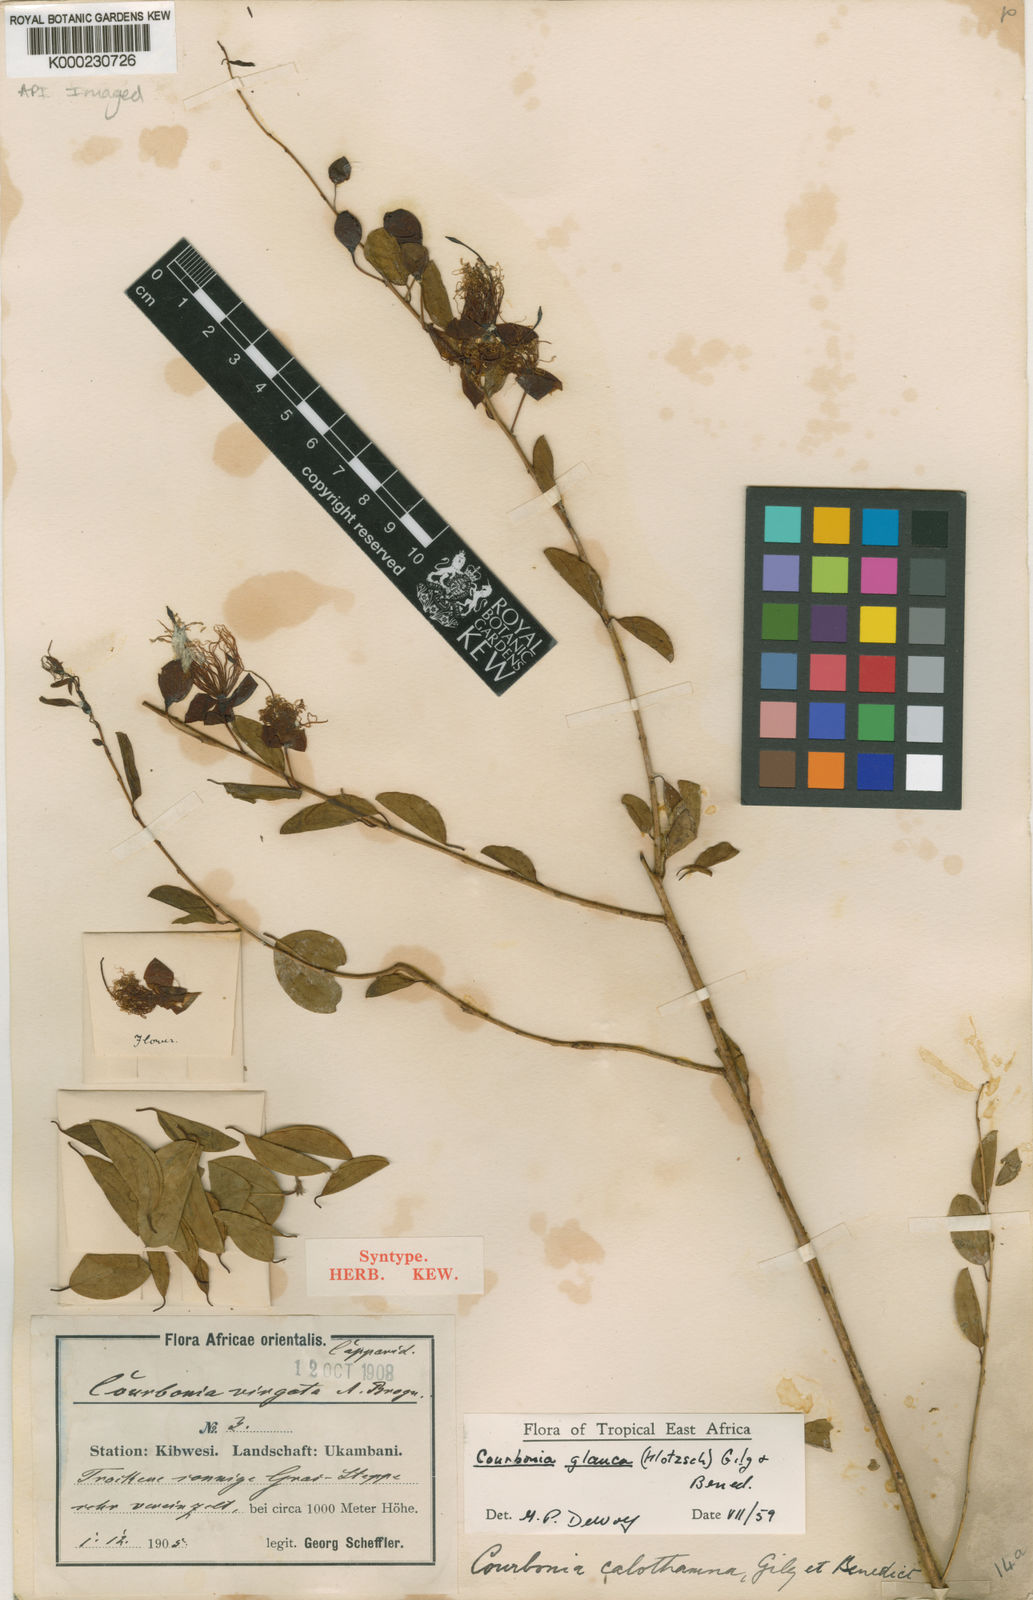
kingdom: Plantae
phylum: Tracheophyta
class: Magnoliopsida
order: Brassicales
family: Capparaceae
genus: Maerua
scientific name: Maerua edulis
